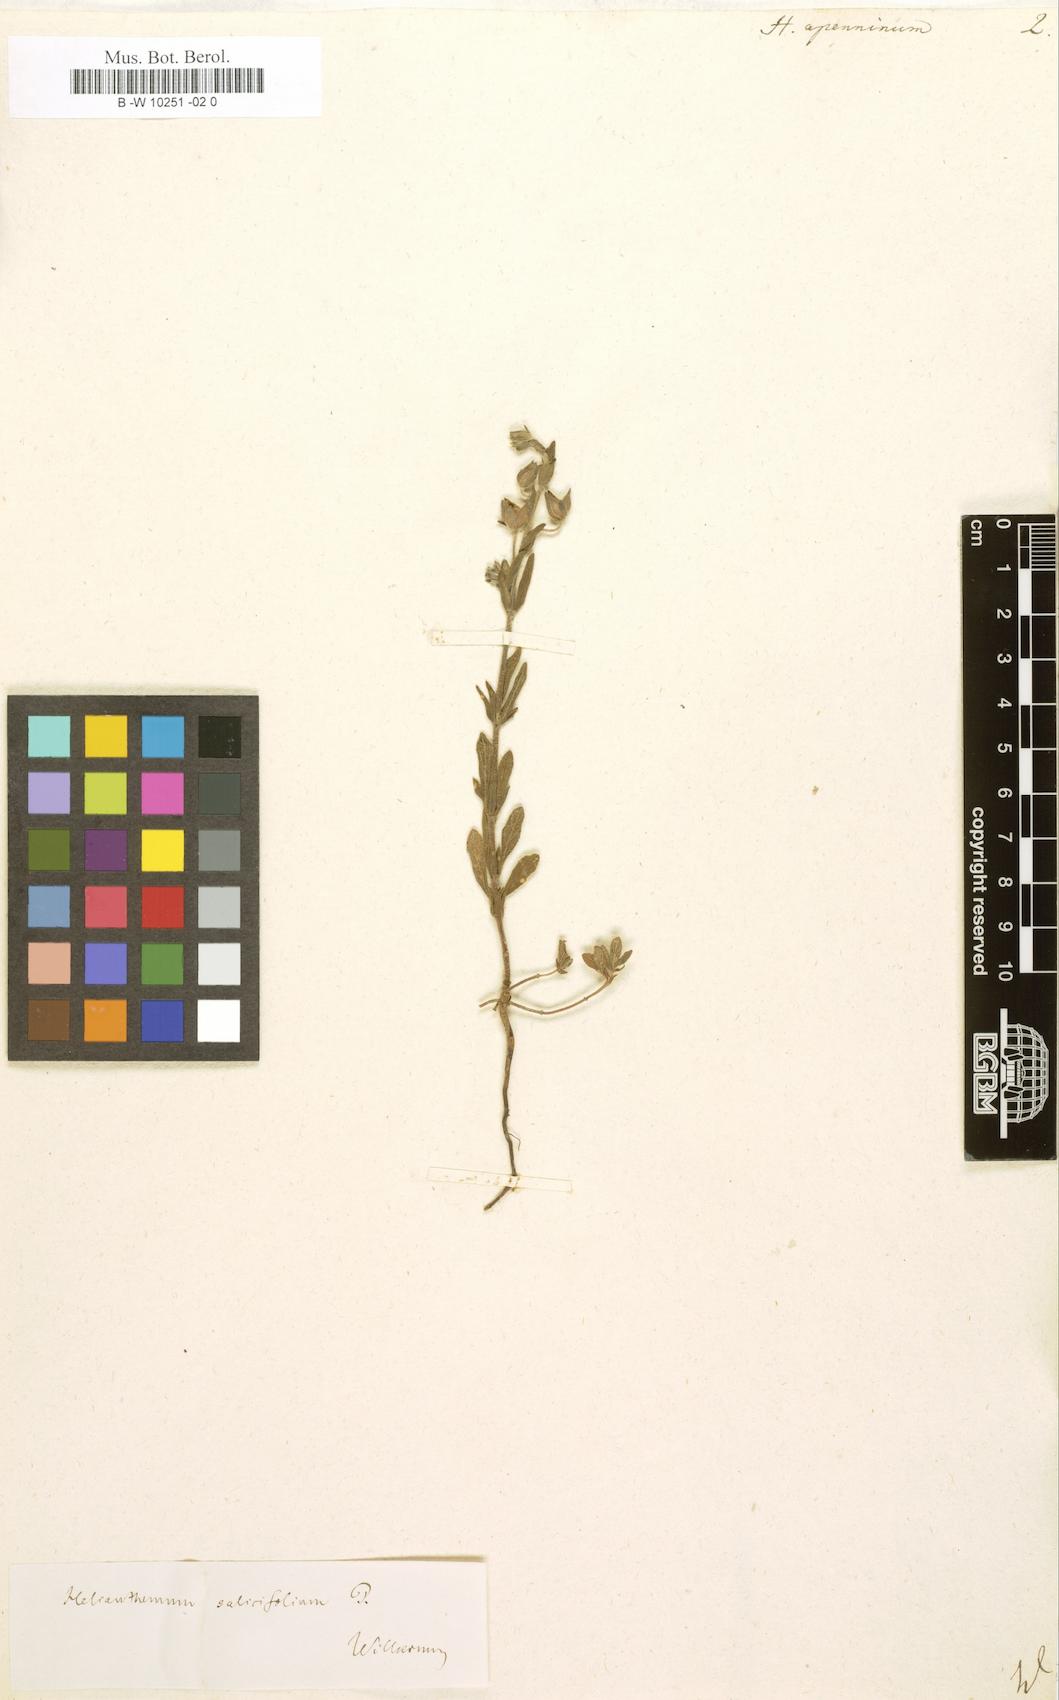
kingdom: Plantae
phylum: Tracheophyta
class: Magnoliopsida
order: Malvales
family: Cistaceae
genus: Helianthemum
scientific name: Helianthemum apenninum
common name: White rock-rose
